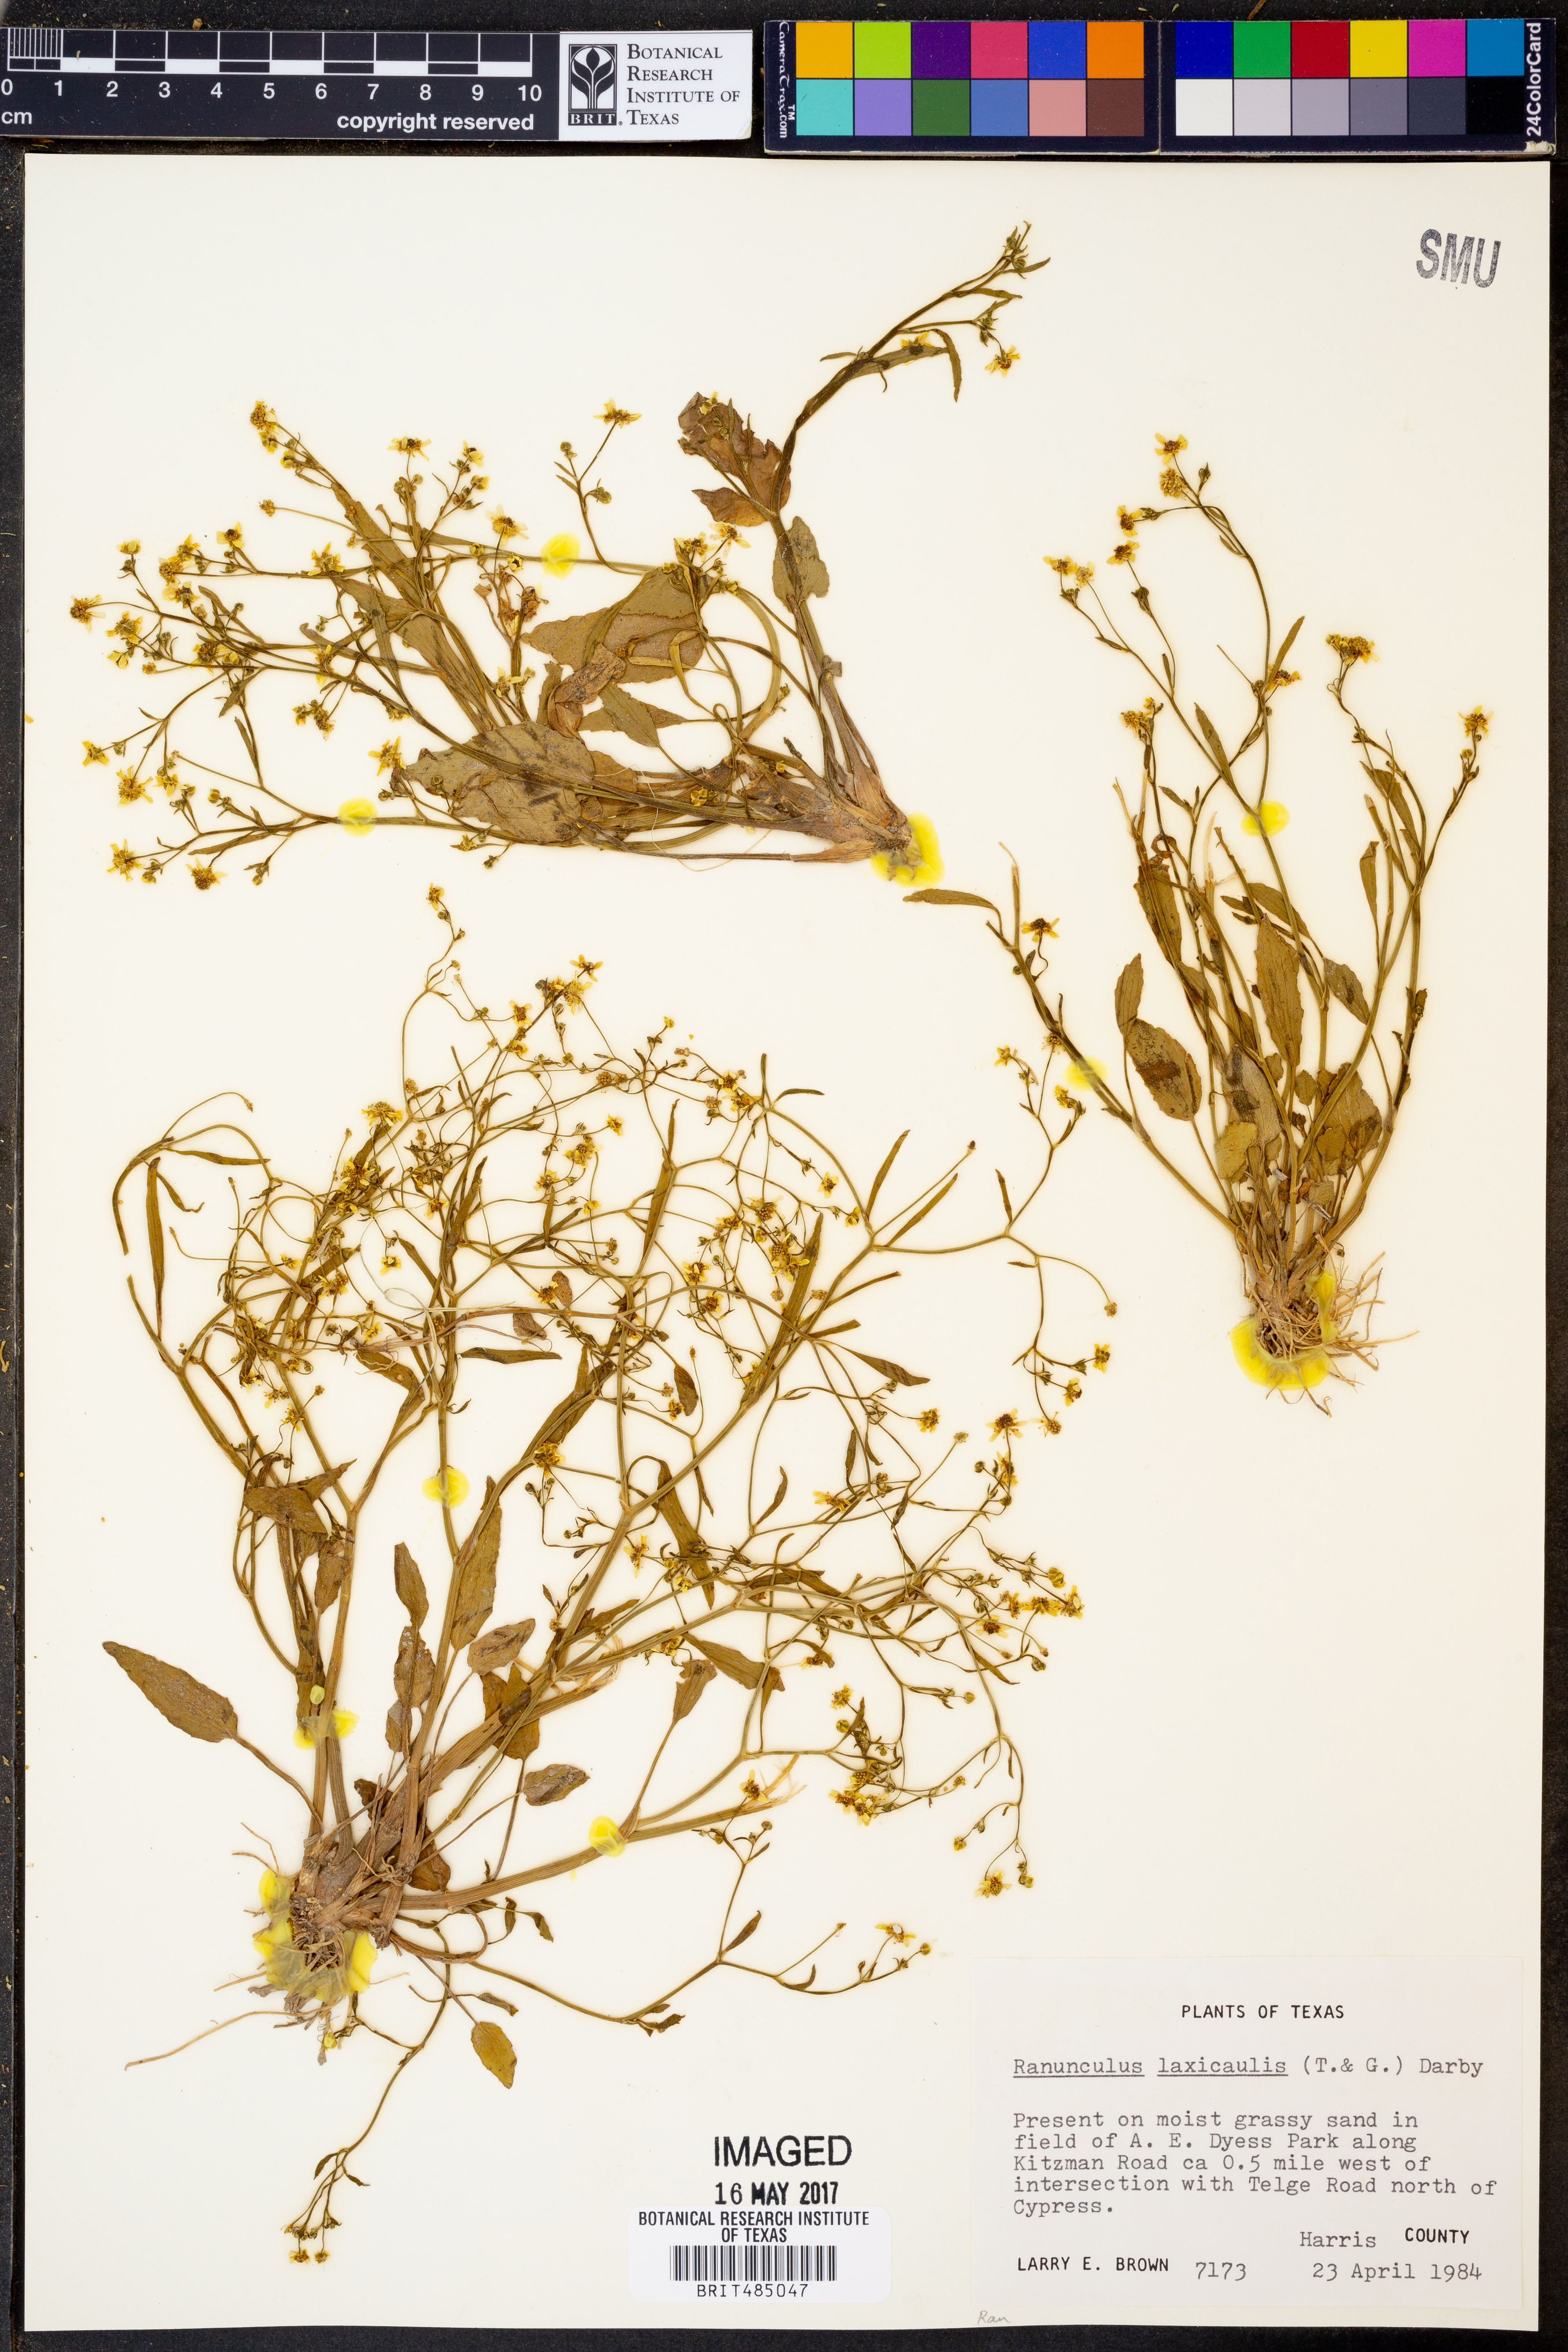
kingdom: Plantae
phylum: Tracheophyta
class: Magnoliopsida
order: Ranunculales
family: Ranunculaceae
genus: Ranunculus
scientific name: Ranunculus laxicaulis
